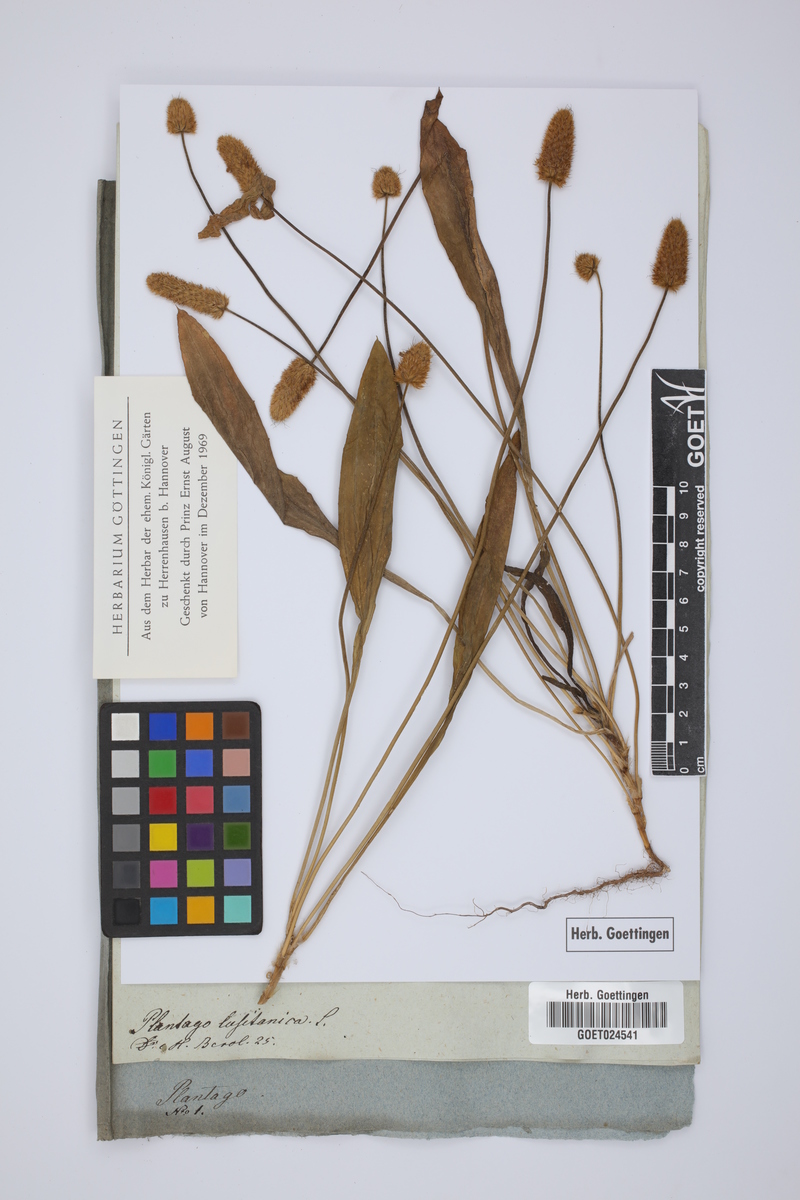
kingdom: Plantae
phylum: Tracheophyta
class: Magnoliopsida
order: Lamiales
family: Plantaginaceae
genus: Plantago
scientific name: Plantago lagopus
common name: Hare-foot plantain
